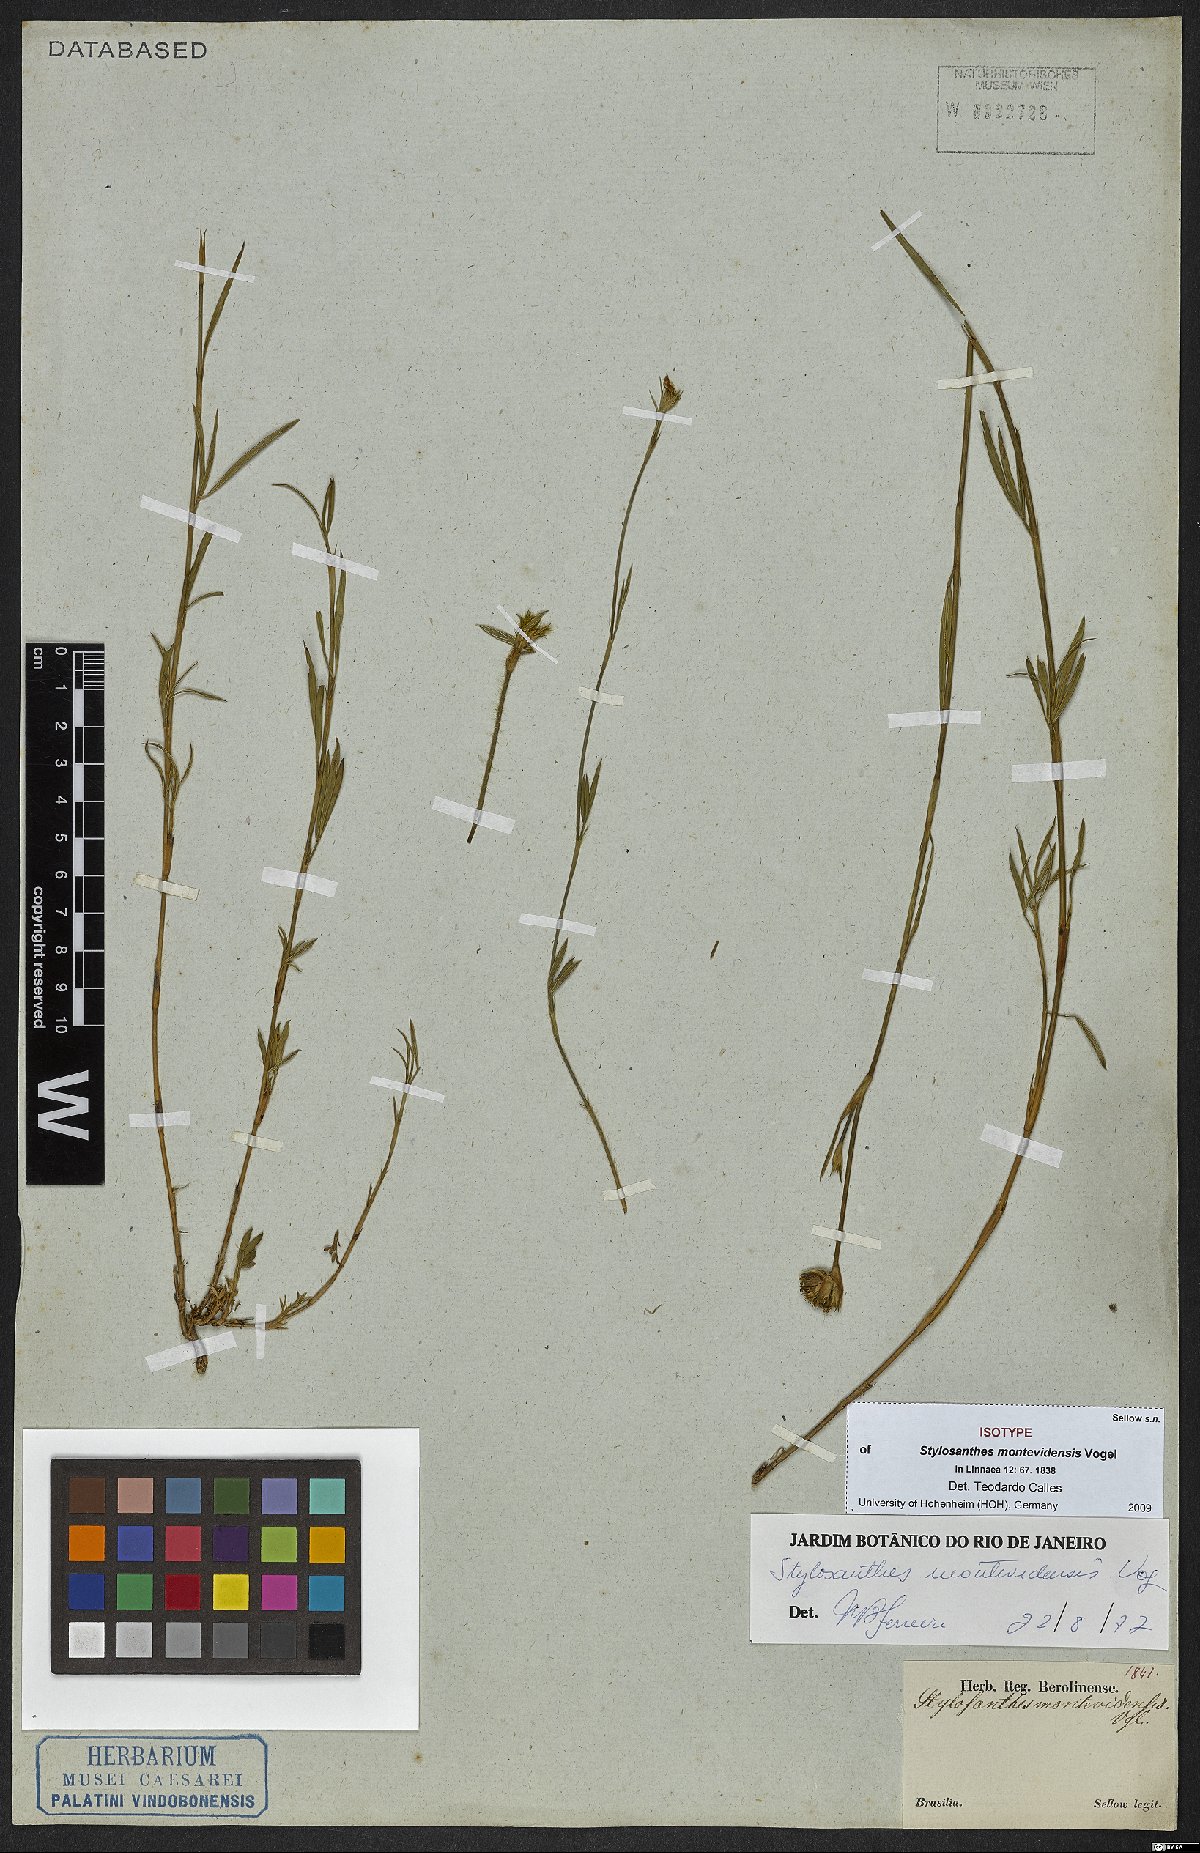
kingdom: Plantae
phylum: Tracheophyta
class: Magnoliopsida
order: Fabales
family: Fabaceae
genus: Stylosanthes
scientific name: Stylosanthes montevidensis
